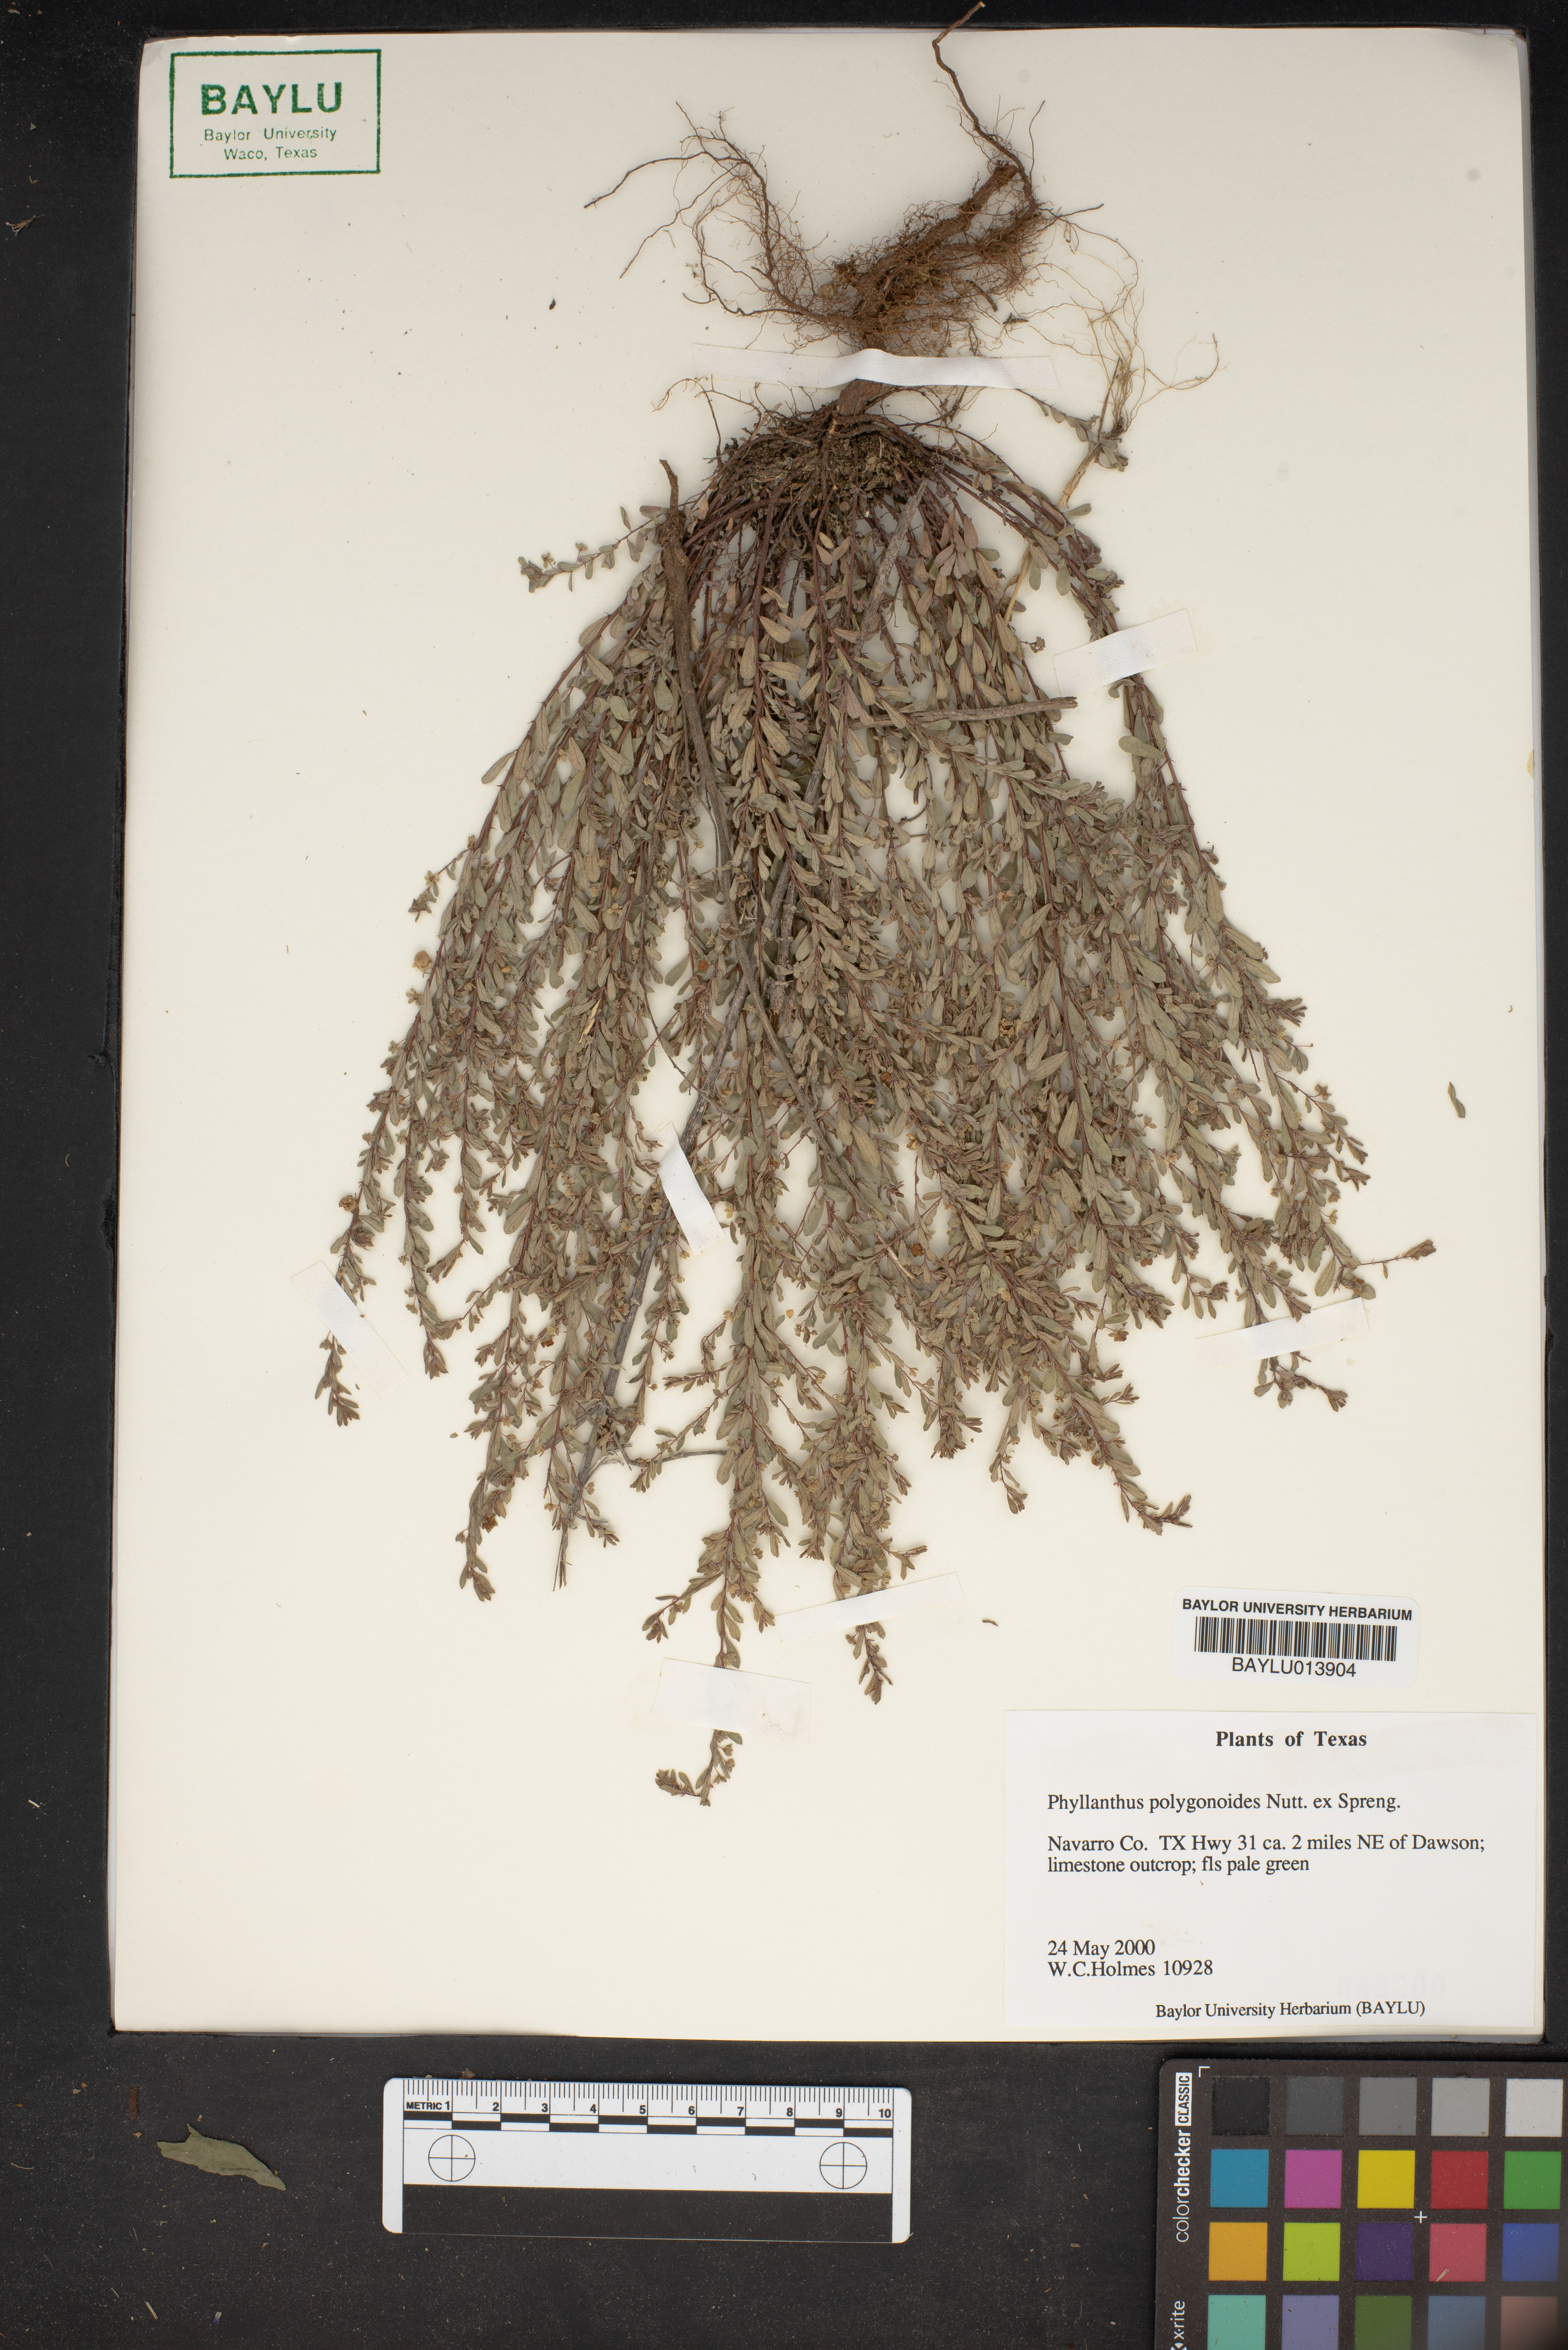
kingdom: Plantae
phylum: Tracheophyta
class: Magnoliopsida
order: Malpighiales
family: Phyllanthaceae
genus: Phyllanthus
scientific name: Phyllanthus polygonoides
